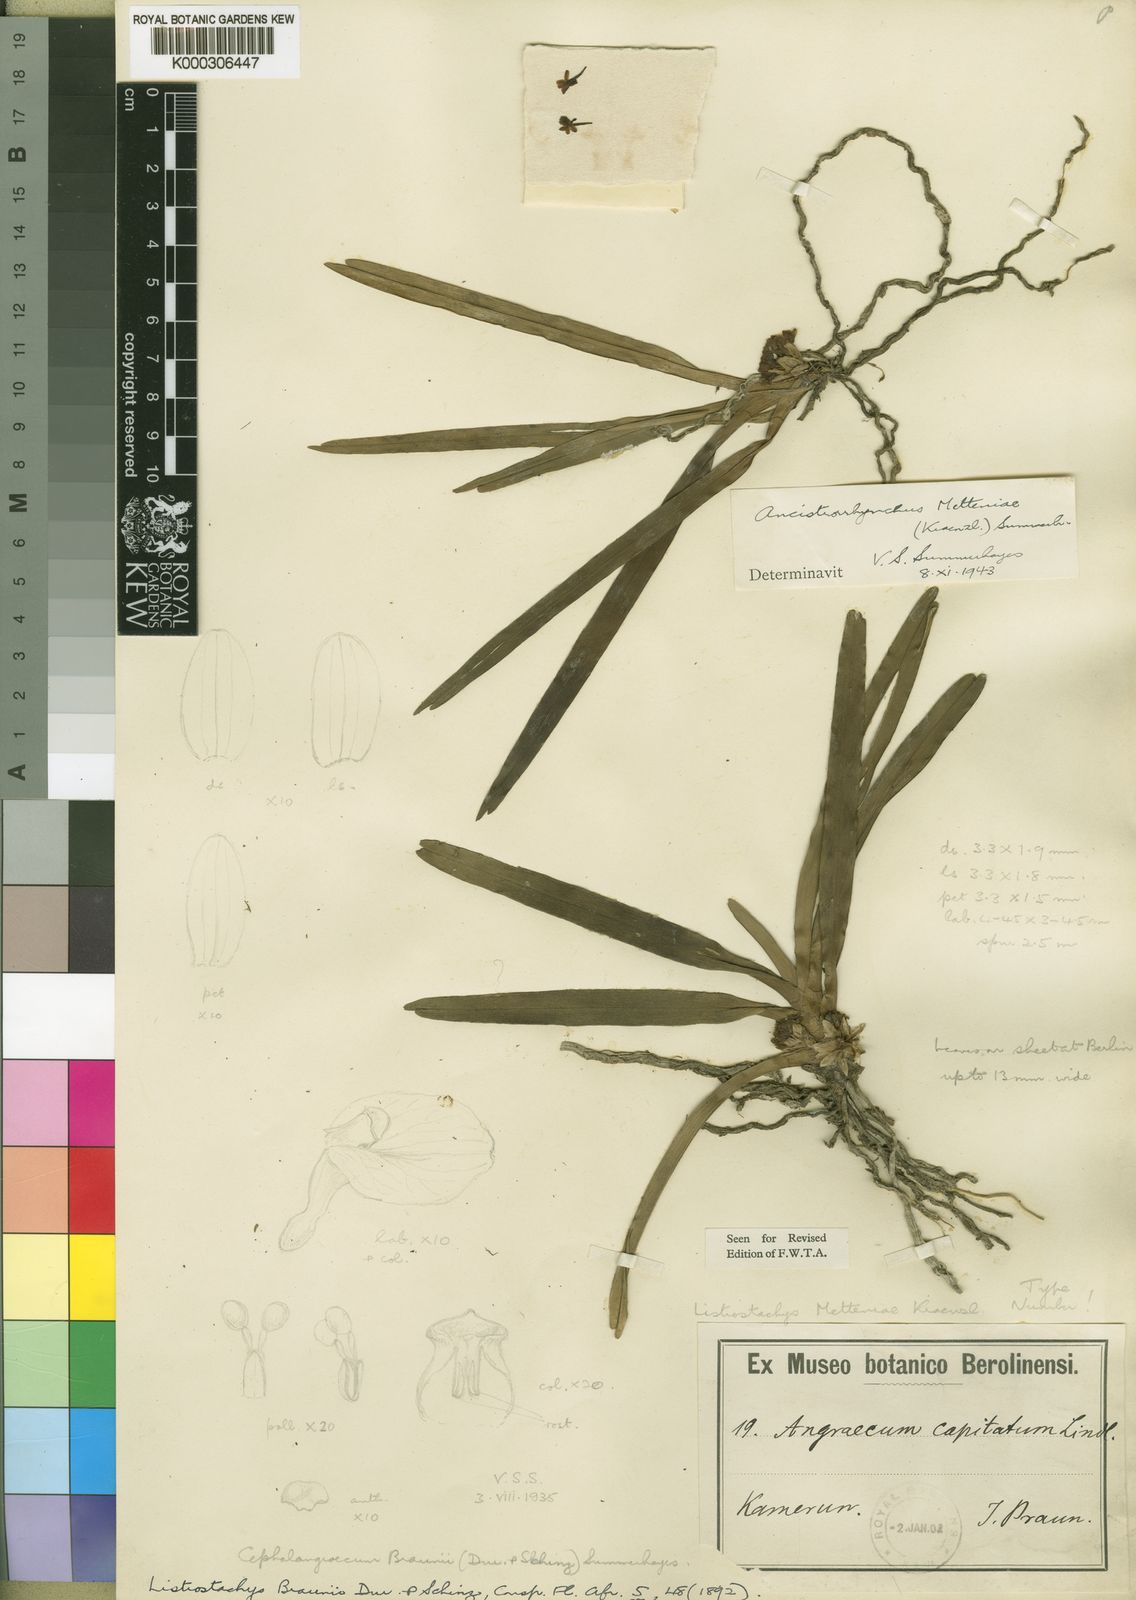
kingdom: Plantae
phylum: Tracheophyta
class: Liliopsida
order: Asparagales
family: Orchidaceae
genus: Ancistrorhynchus
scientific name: Ancistrorhynchus metteniae
